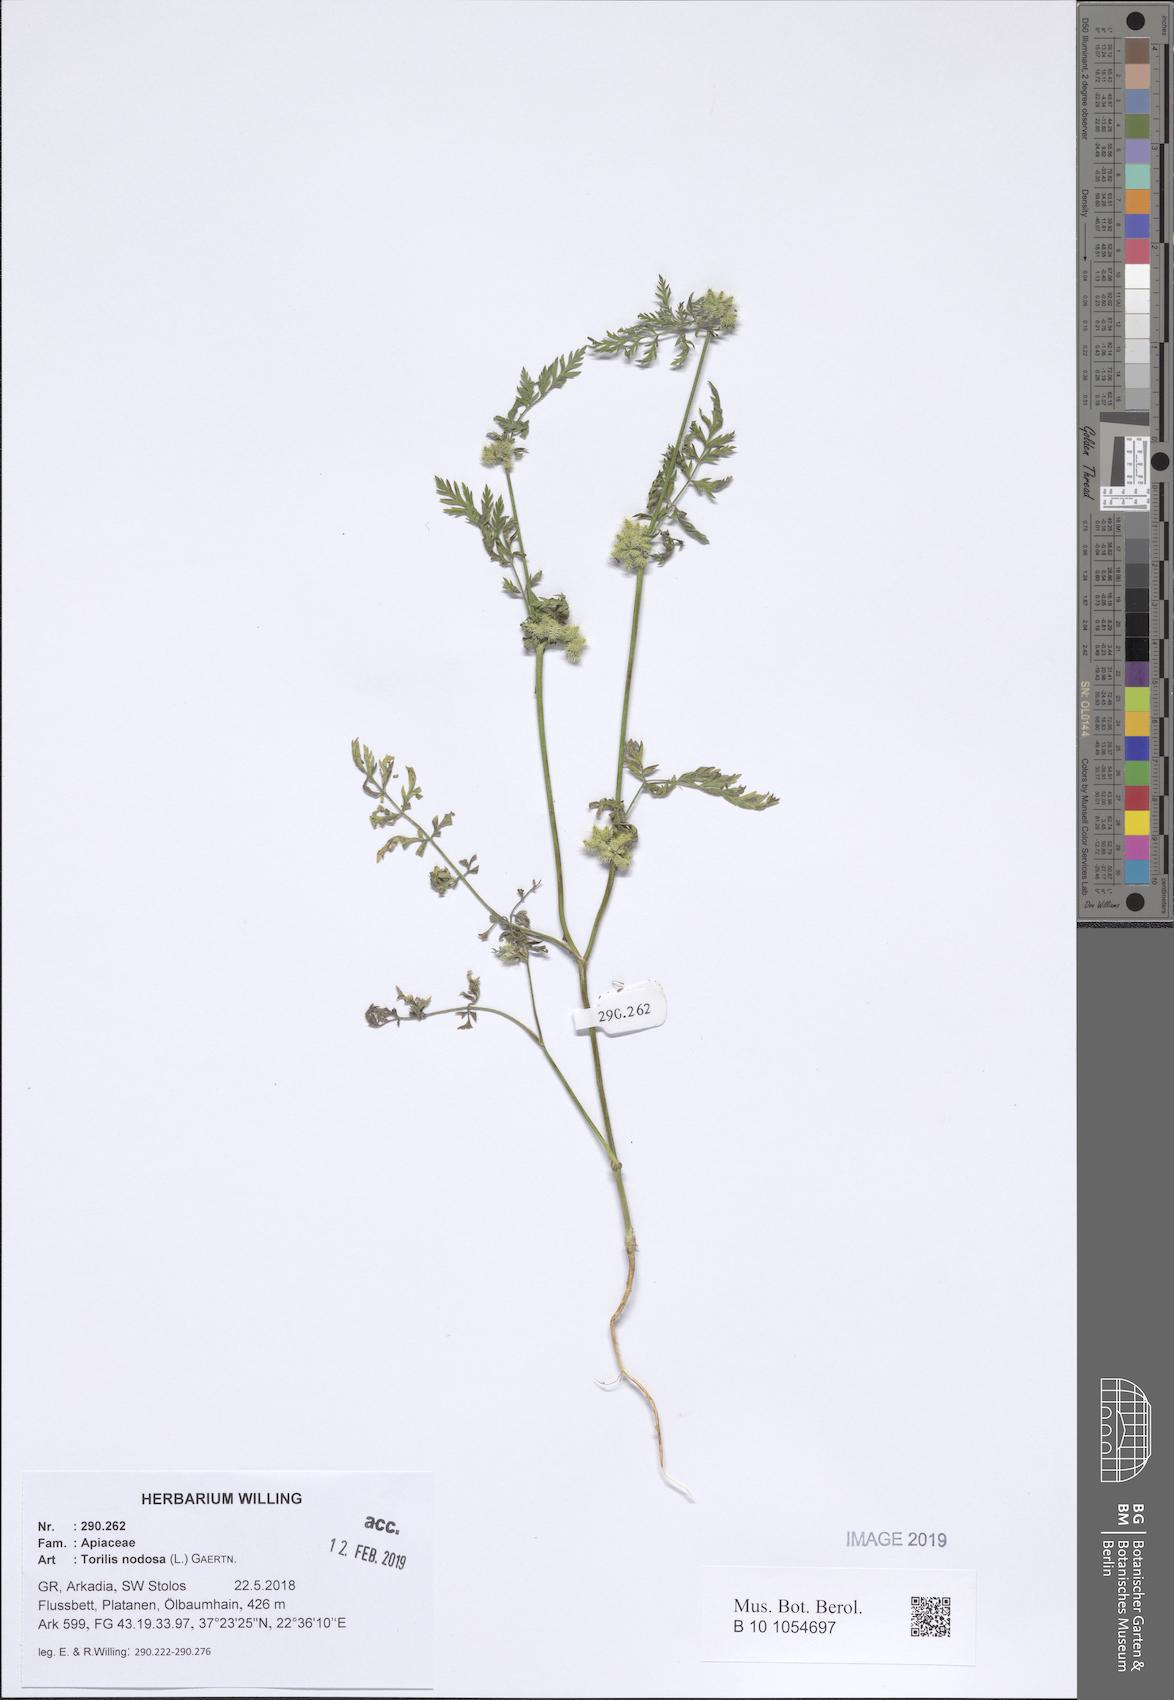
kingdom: Plantae
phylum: Tracheophyta
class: Magnoliopsida
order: Apiales
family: Apiaceae
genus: Torilis
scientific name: Torilis nodosa
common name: Knotted hedge-parsley
